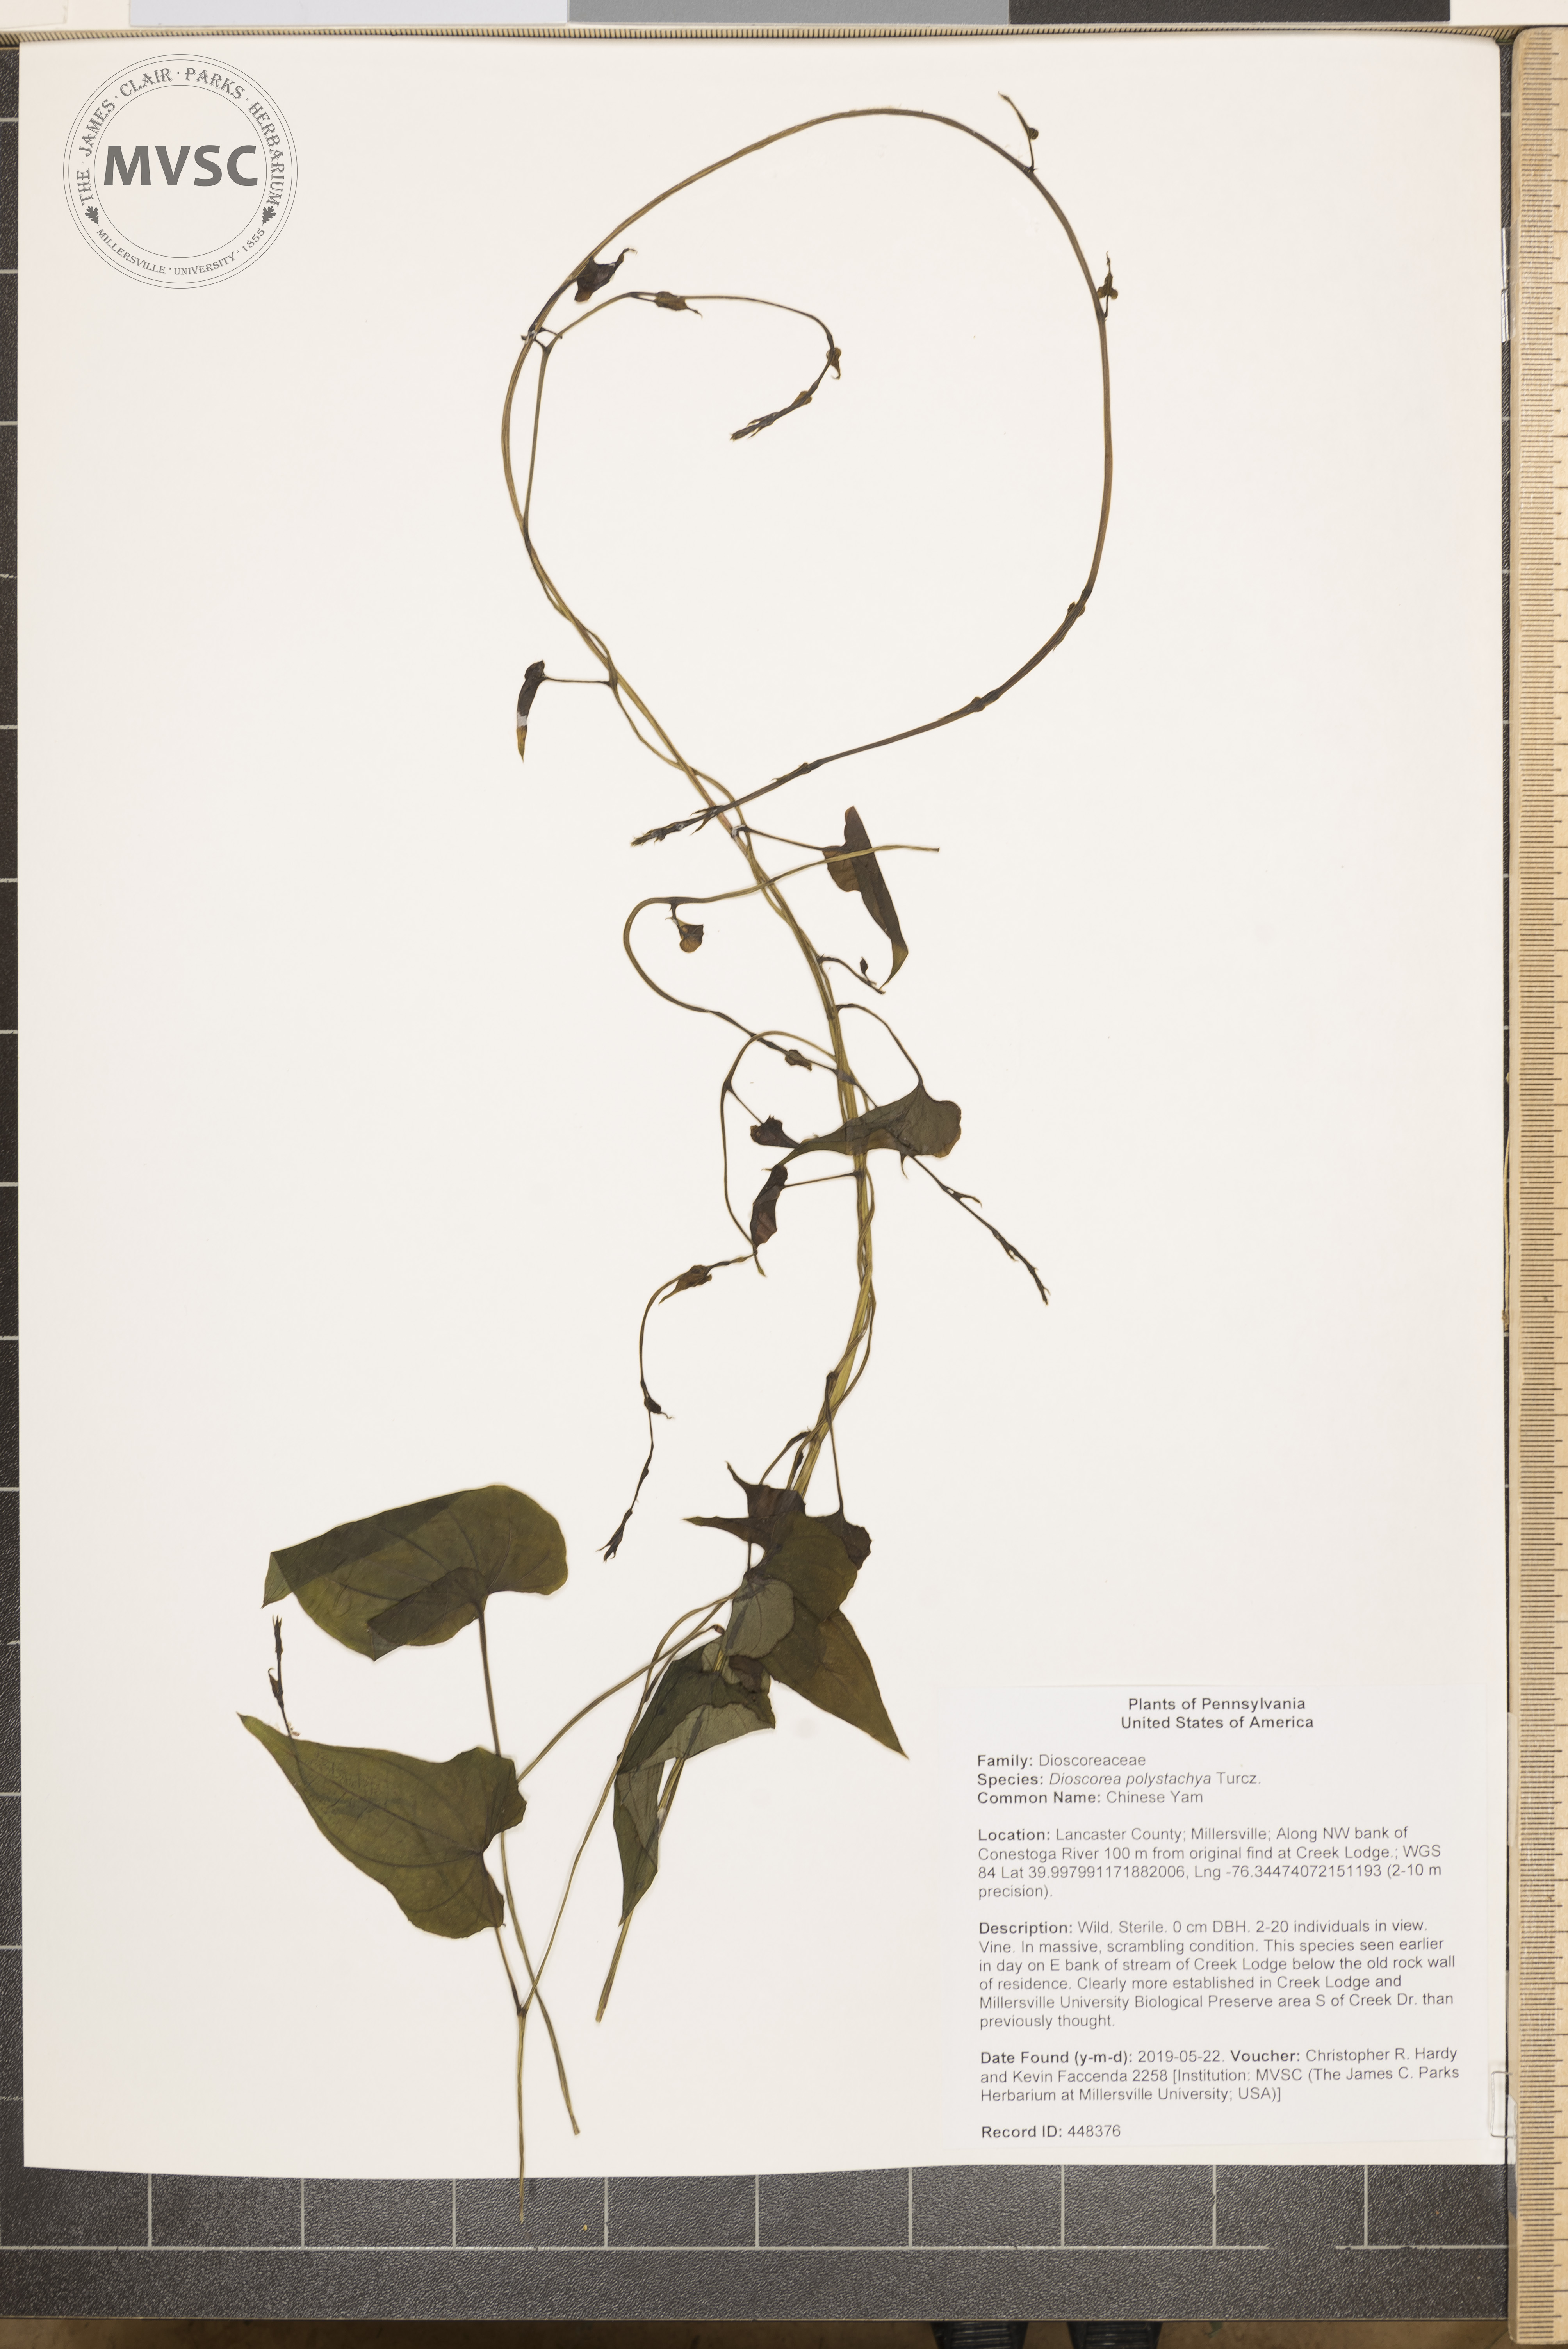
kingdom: Plantae
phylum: Tracheophyta
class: Liliopsida
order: Dioscoreales
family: Dioscoreaceae
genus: Dioscorea
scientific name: Dioscorea polystachya
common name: Chinese Yam
